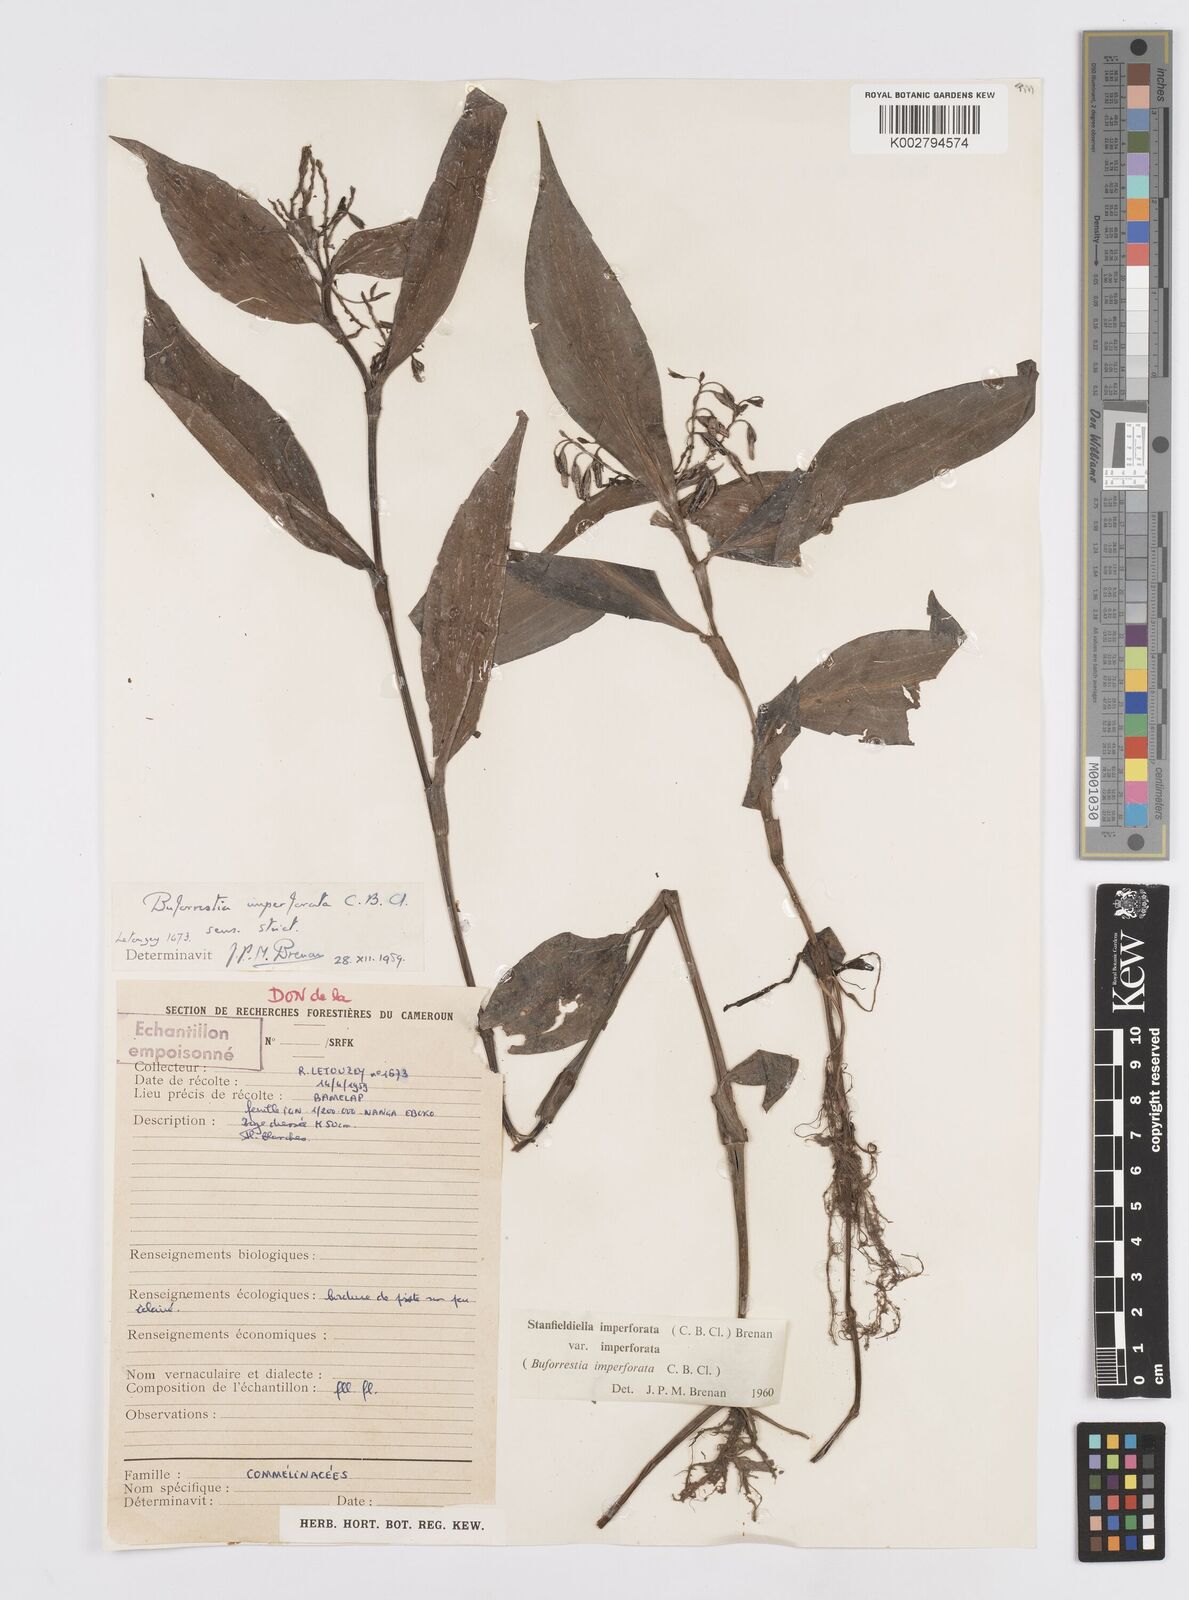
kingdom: Plantae
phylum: Tracheophyta
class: Liliopsida
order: Commelinales
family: Commelinaceae
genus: Stanfieldiella
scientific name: Stanfieldiella imperforata
